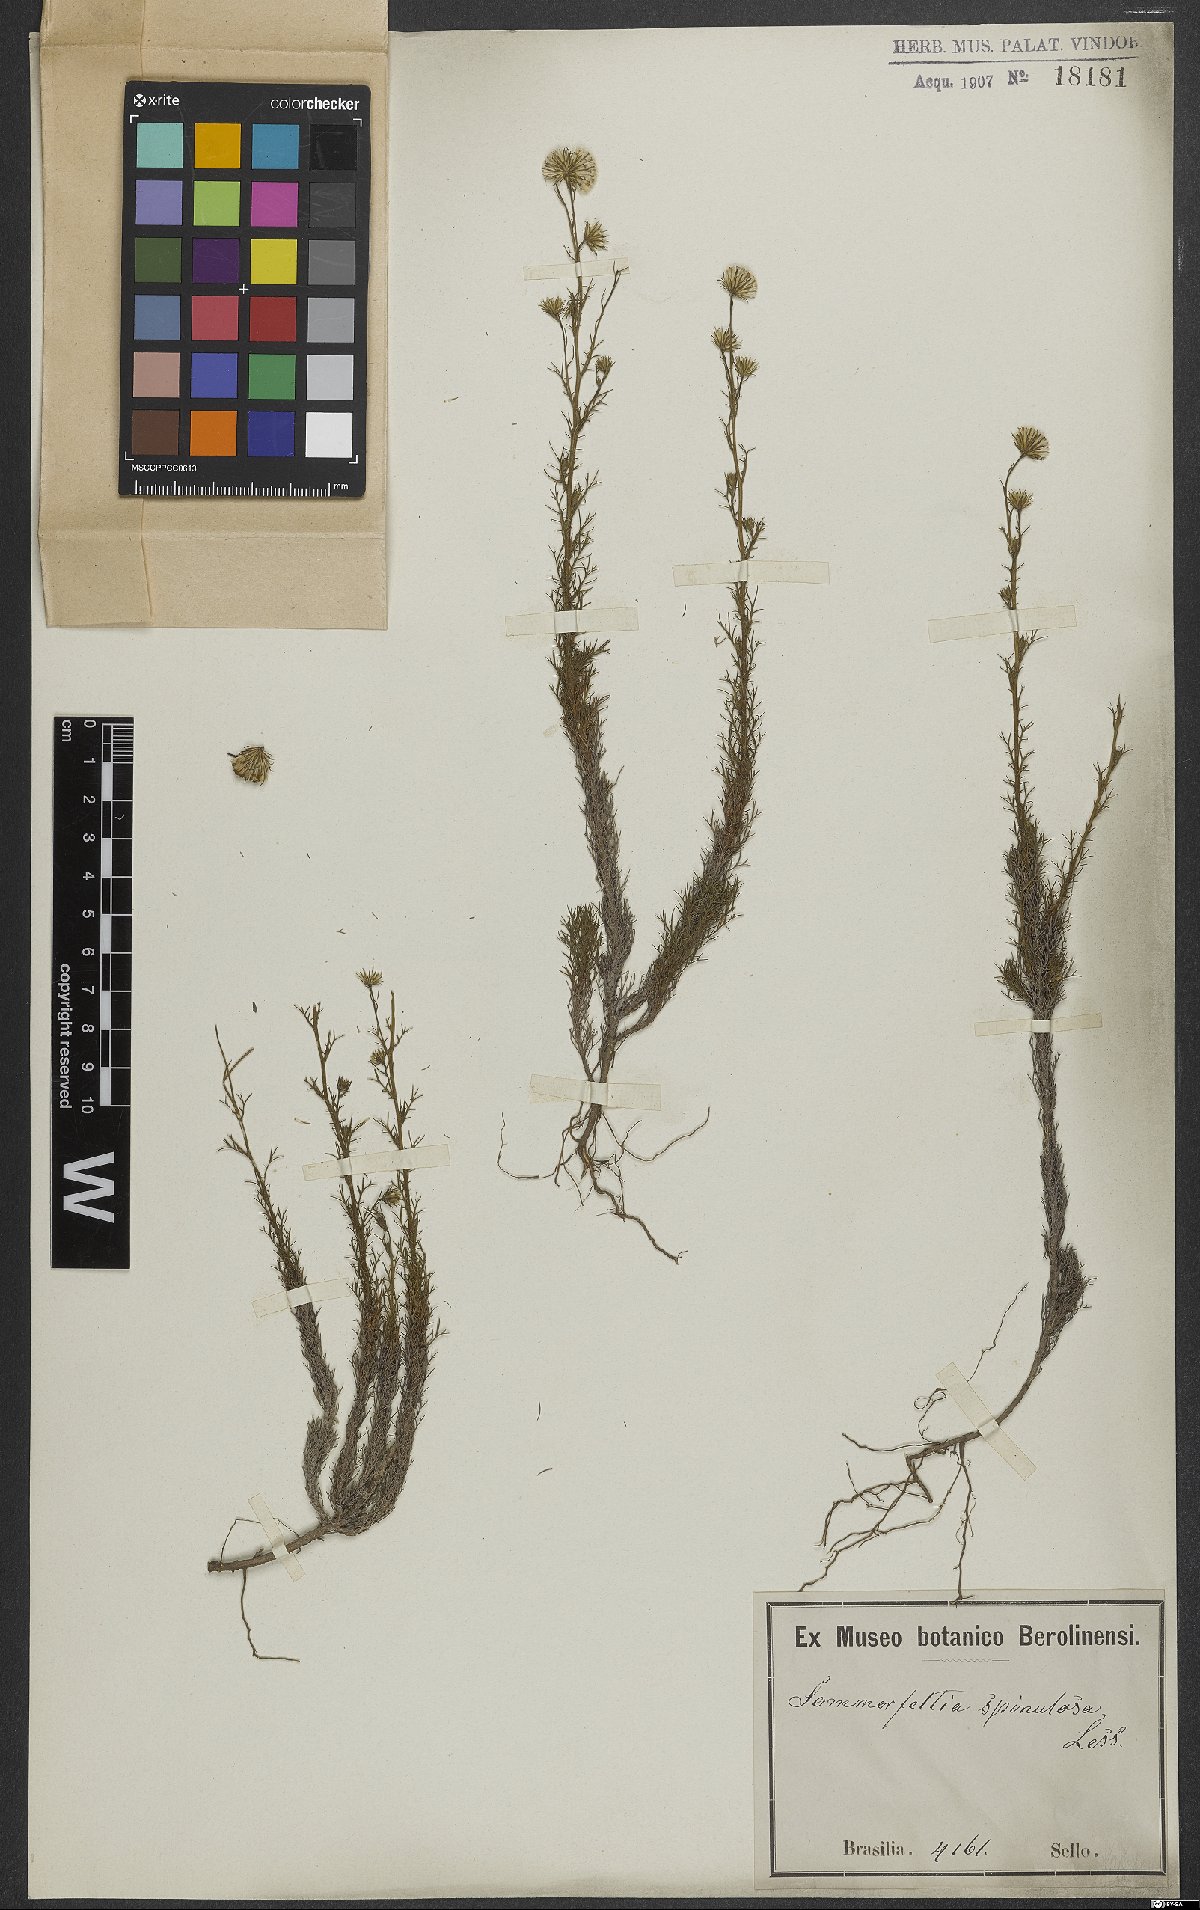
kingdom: Plantae
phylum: Tracheophyta
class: Magnoliopsida
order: Asterales
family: Asteraceae
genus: Sommerfeltia
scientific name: Sommerfeltia spinulosa
